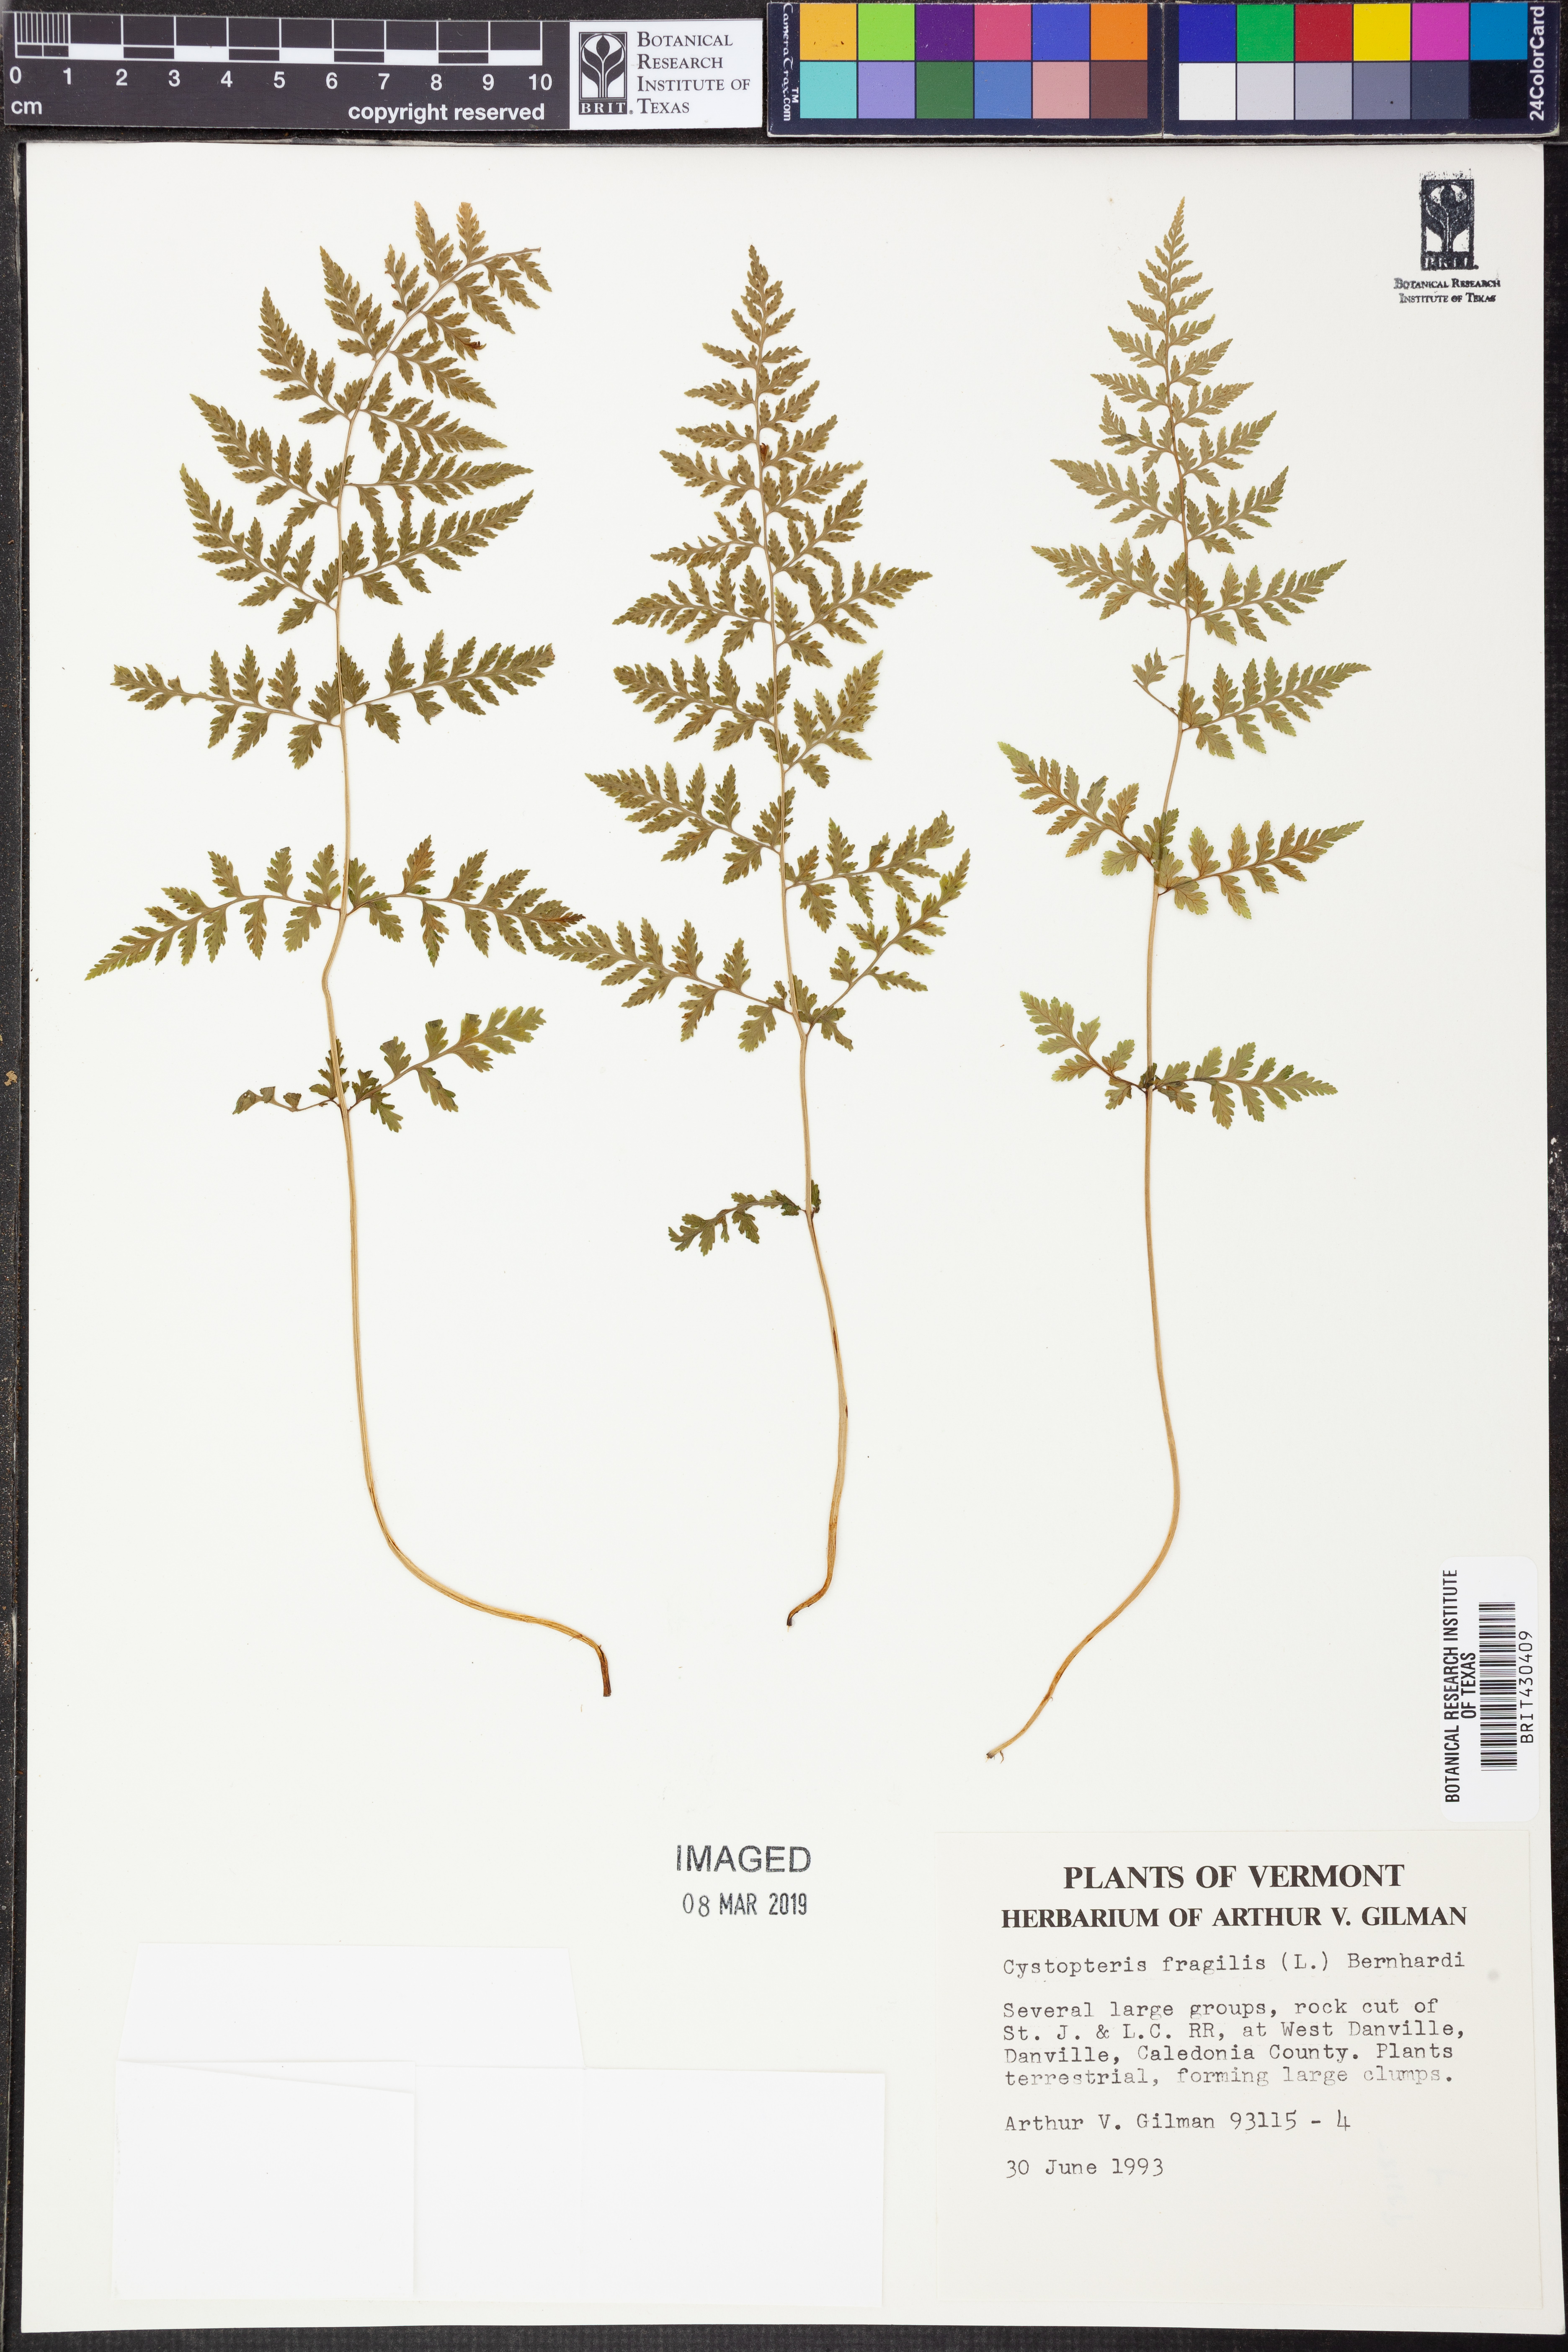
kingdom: Plantae
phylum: Tracheophyta
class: Polypodiopsida
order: Polypodiales
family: Cystopteridaceae
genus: Cystopteris
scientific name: Cystopteris fragilis
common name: Brittle bladder fern
